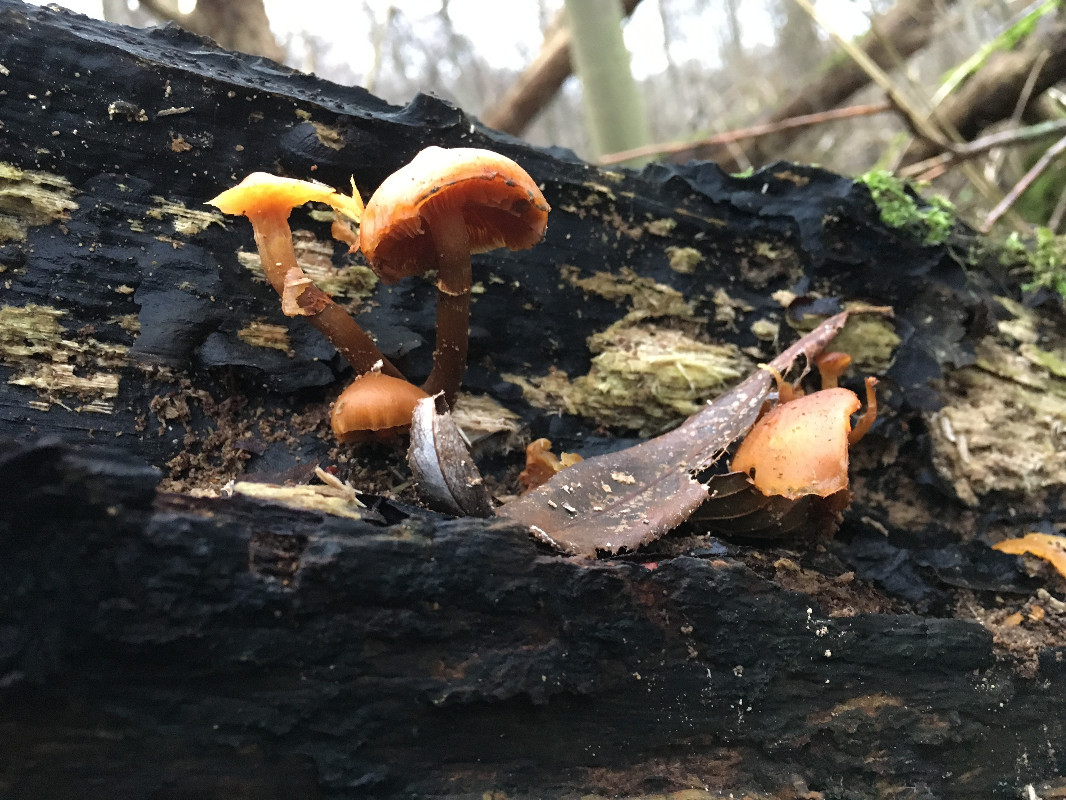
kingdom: Fungi
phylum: Basidiomycota
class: Agaricomycetes
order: Agaricales
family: Hymenogastraceae
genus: Galerina
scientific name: Galerina marginata
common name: randbæltet hjelmhat
